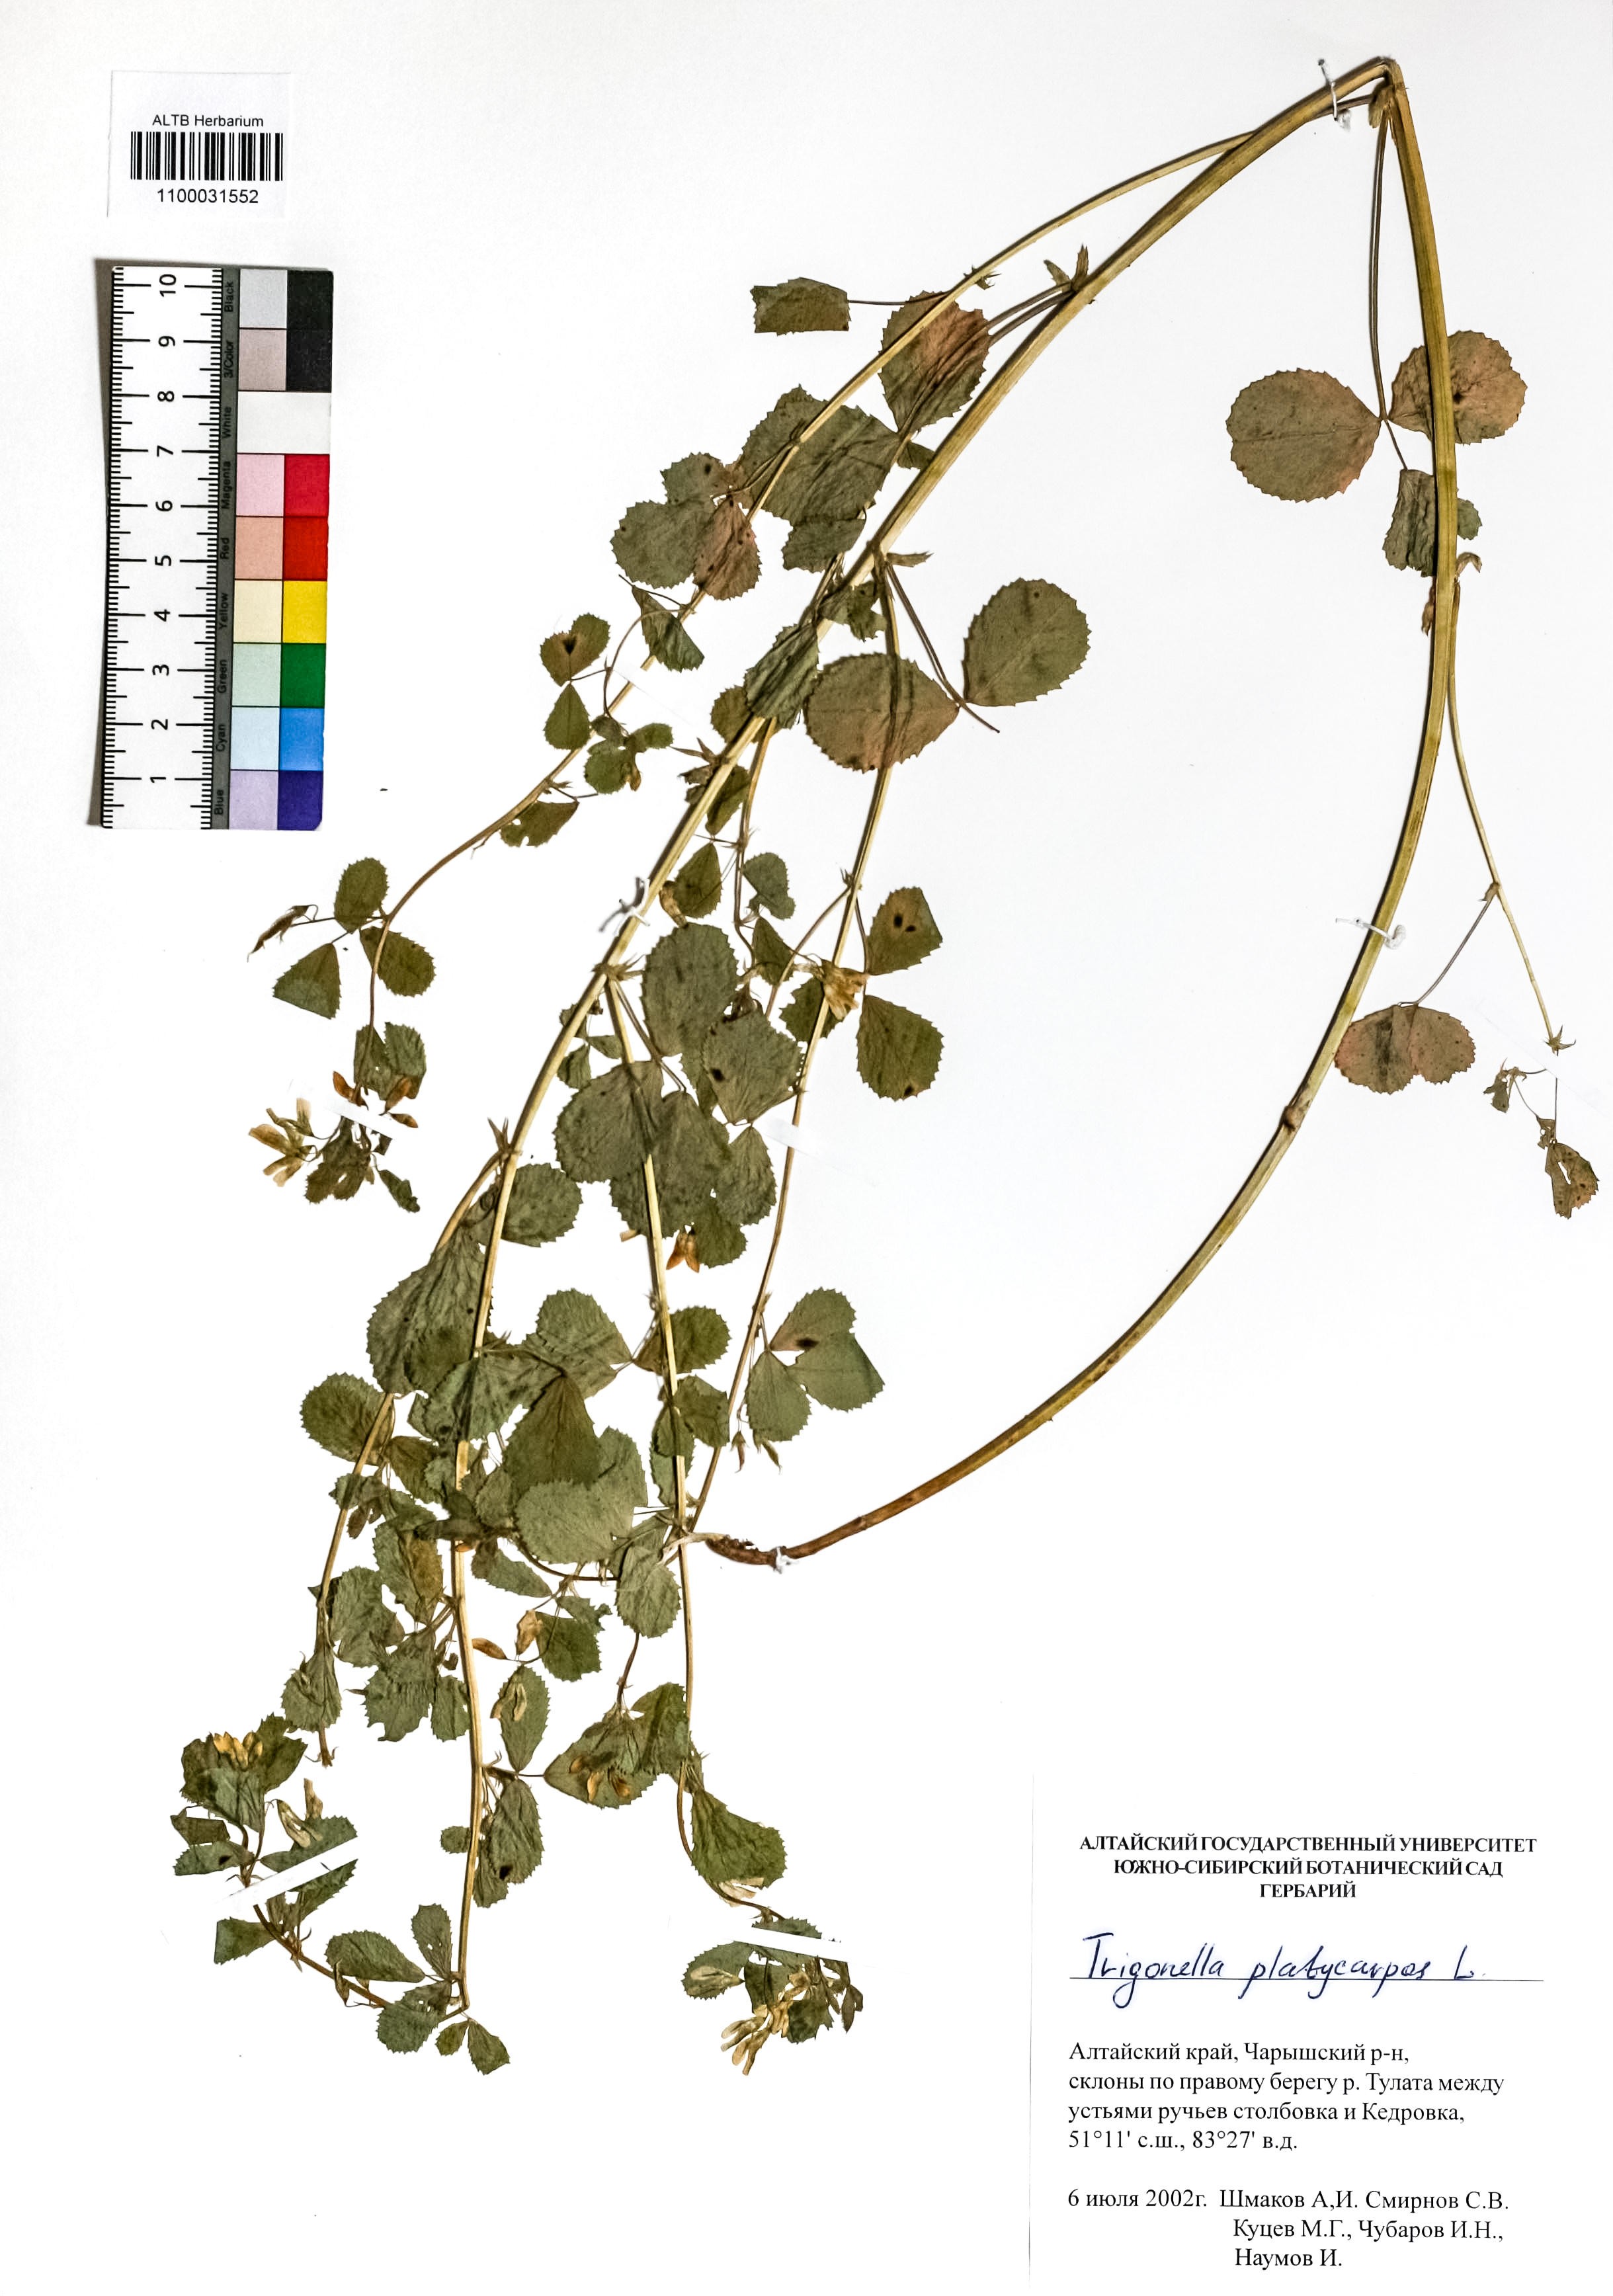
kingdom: Plantae
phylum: Tracheophyta
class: Magnoliopsida
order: Fabales
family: Fabaceae
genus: Medicago
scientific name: Medicago platycarpos
